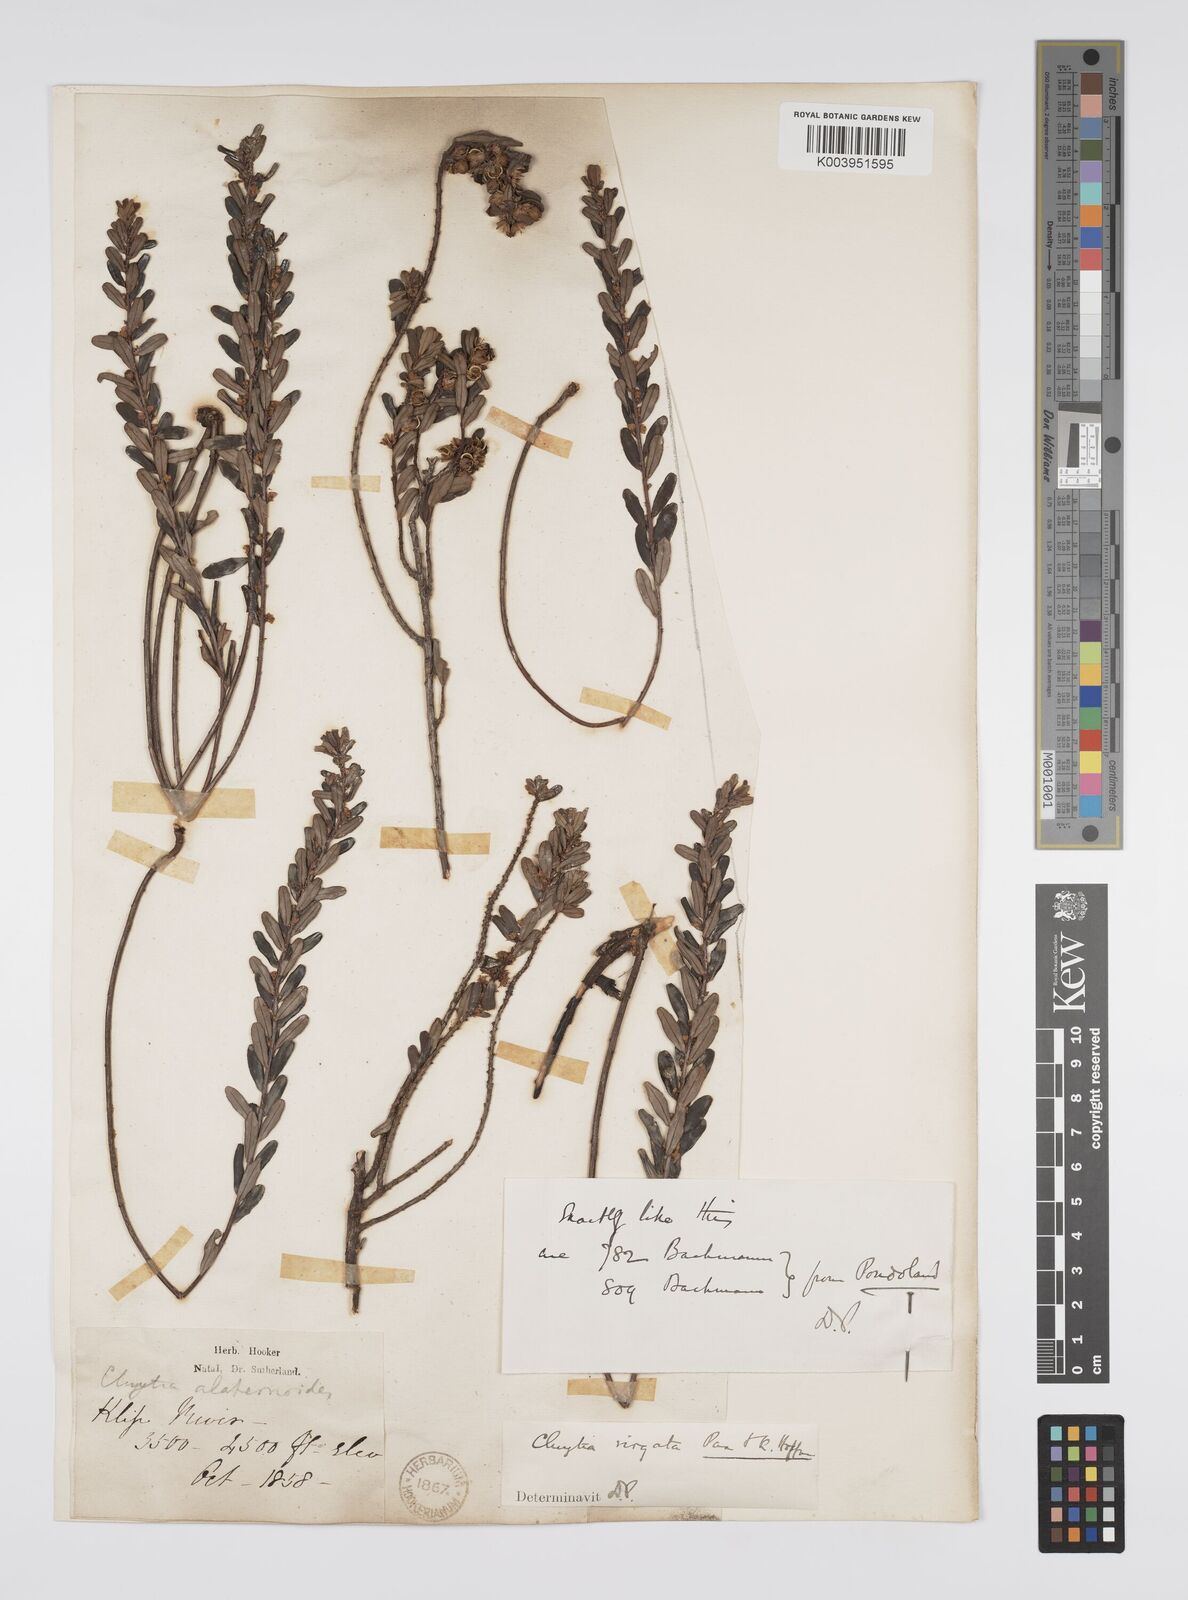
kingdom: Plantae
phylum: Tracheophyta
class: Magnoliopsida
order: Malpighiales
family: Peraceae
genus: Clutia
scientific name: Clutia virgata
